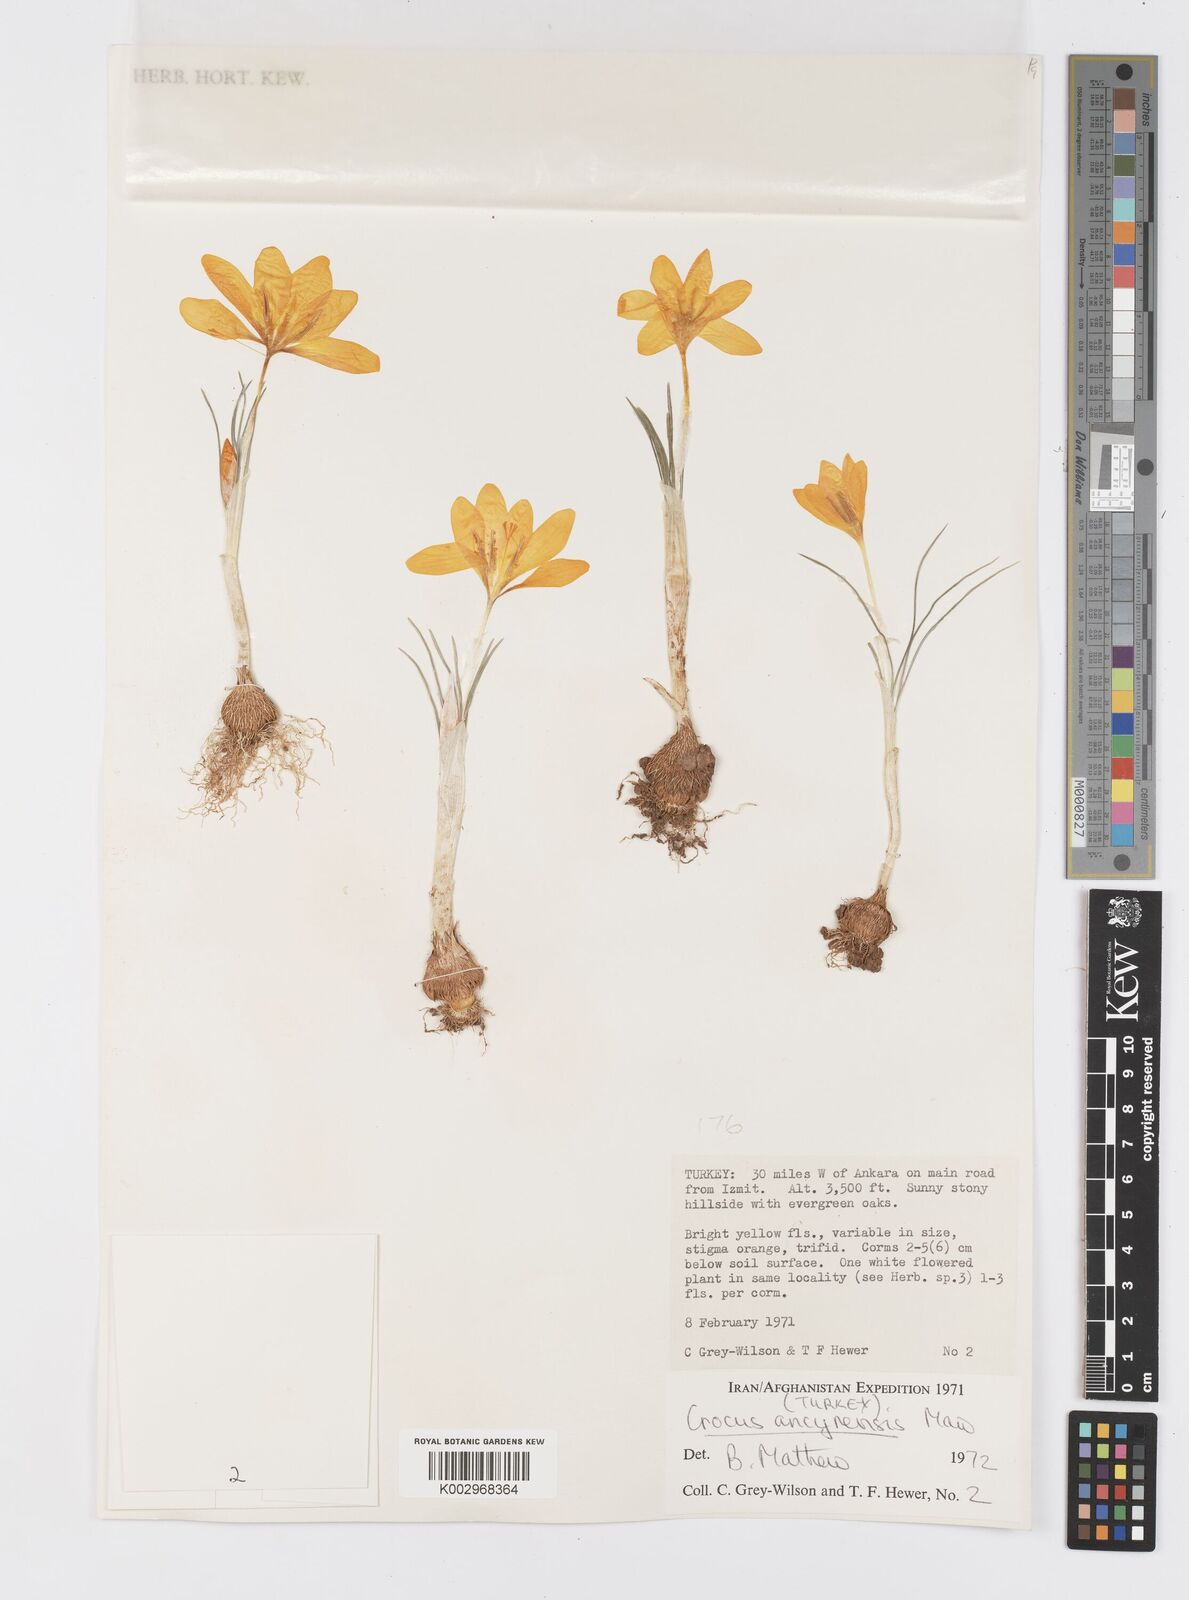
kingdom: Plantae
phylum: Tracheophyta
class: Liliopsida
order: Asparagales
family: Iridaceae
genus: Crocus
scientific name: Crocus ancyrensis
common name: Ankara crocus
